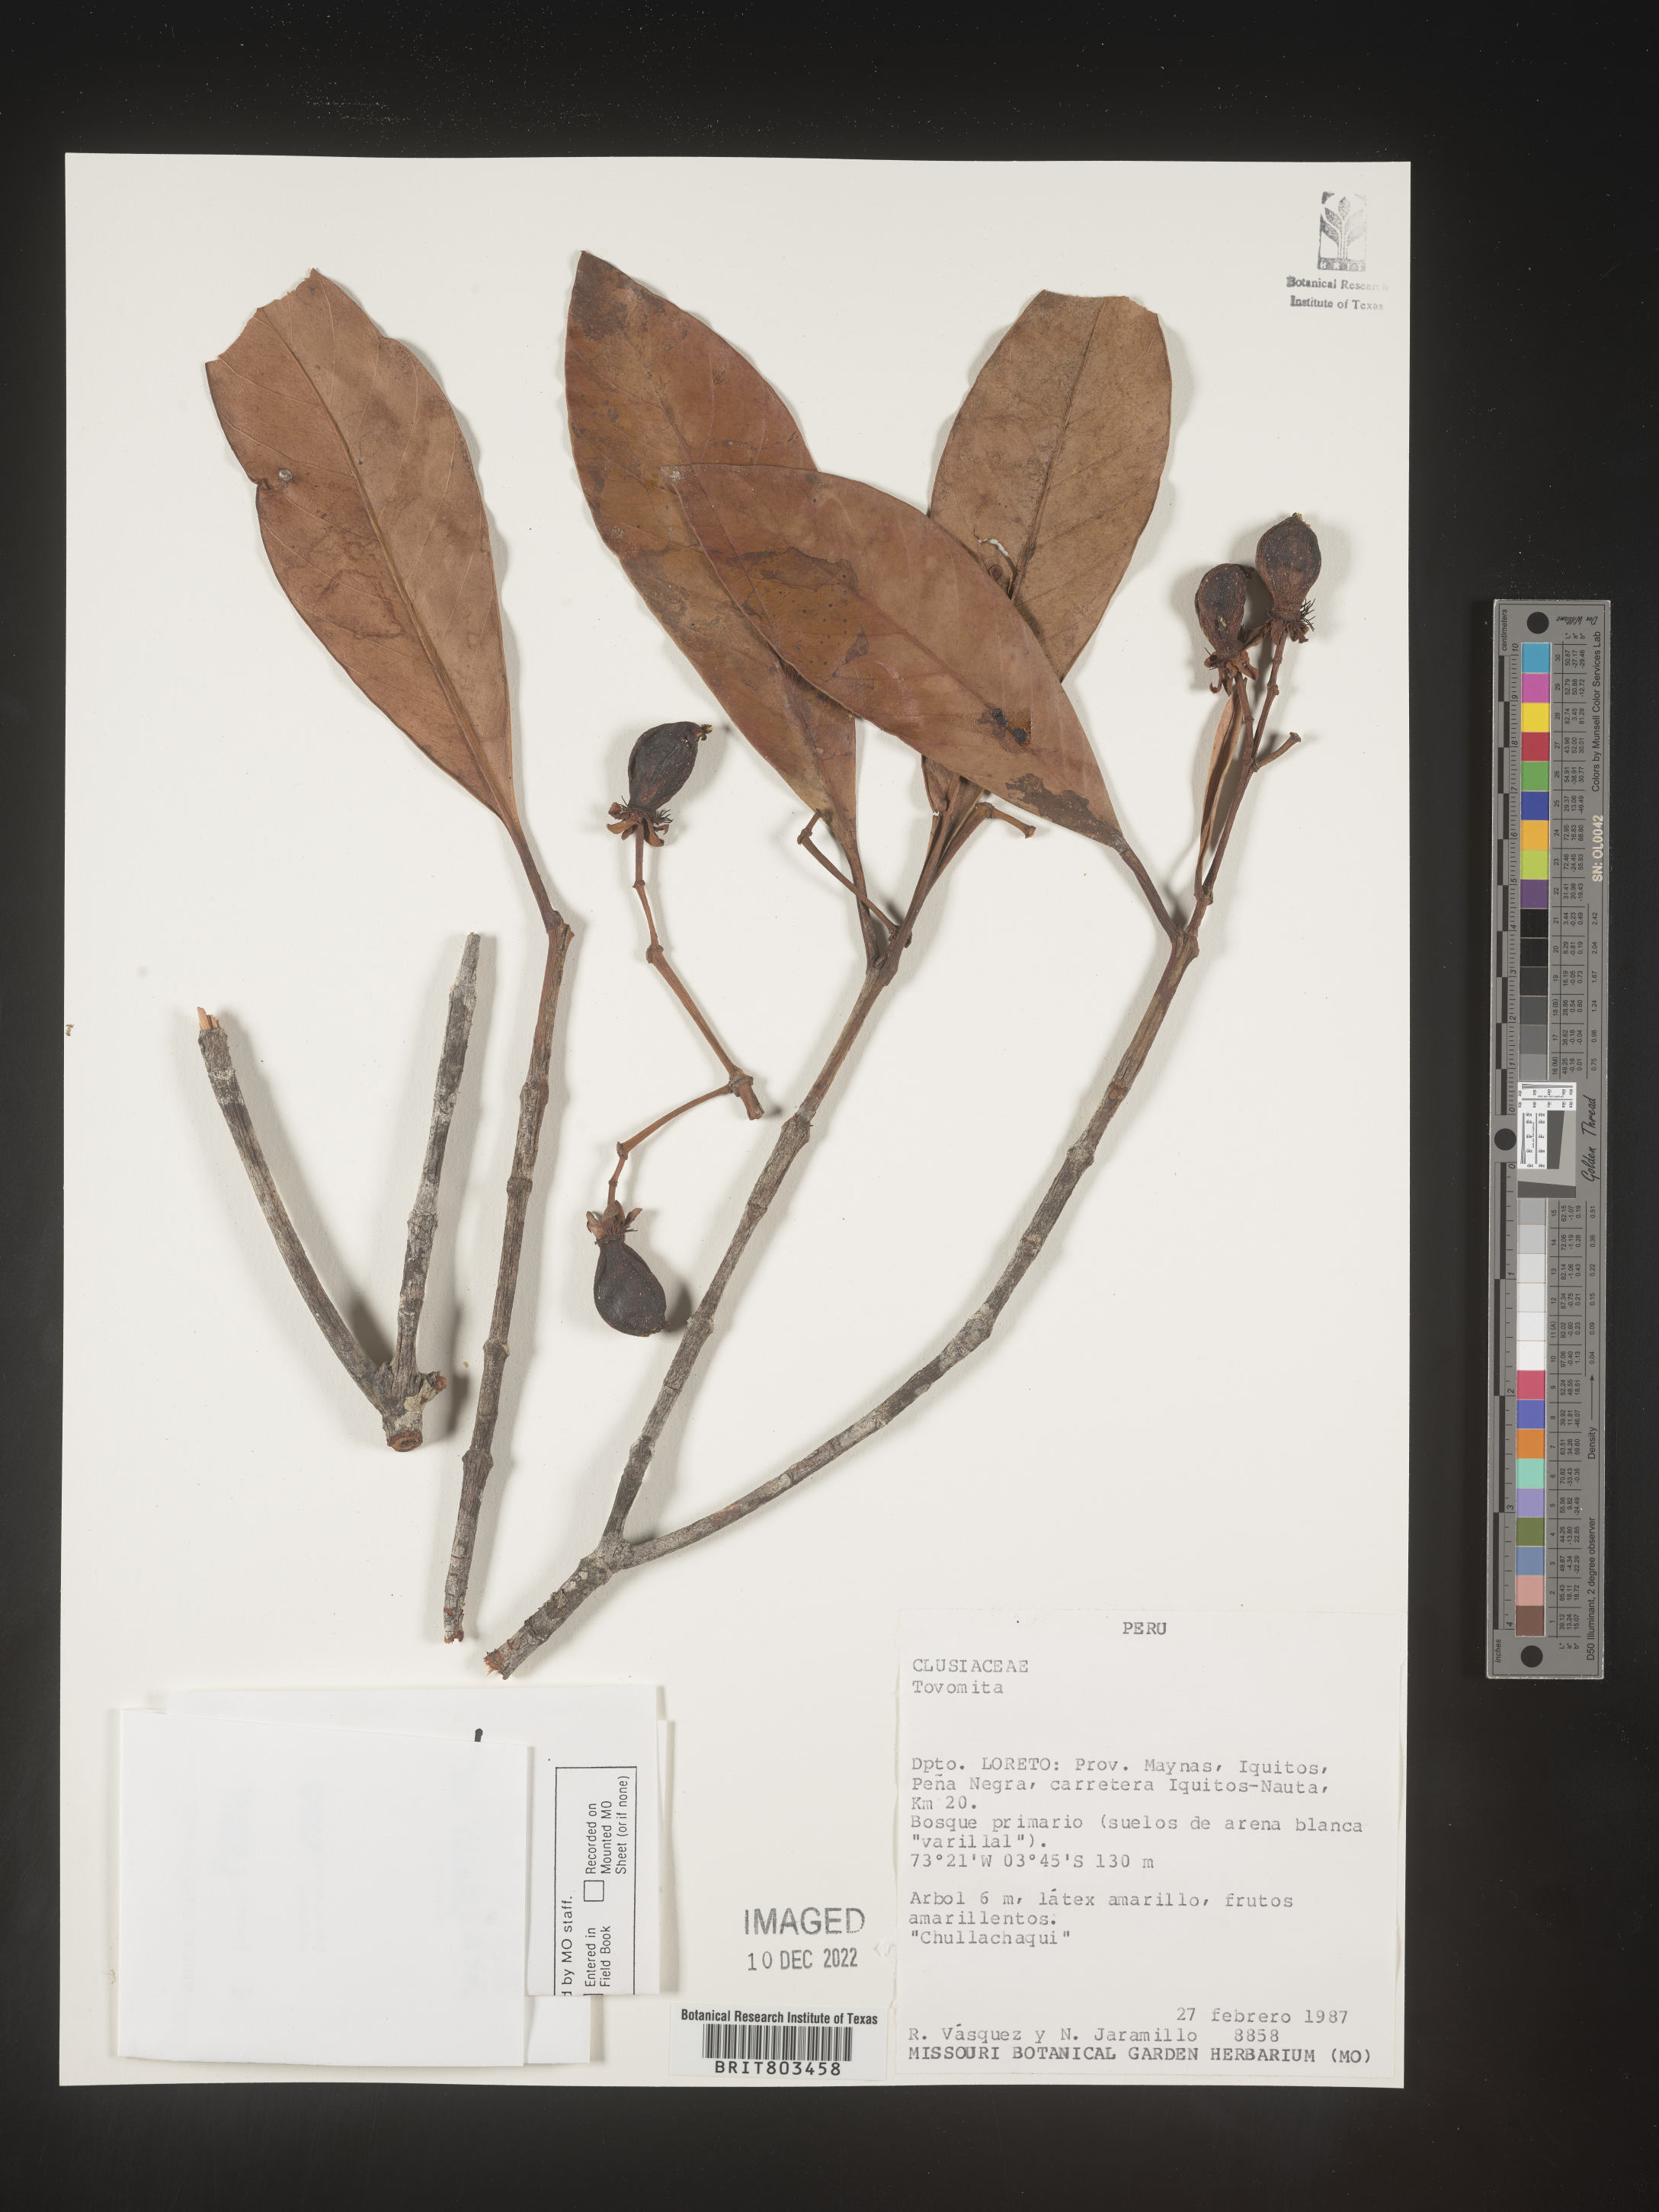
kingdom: Plantae
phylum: Tracheophyta
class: Magnoliopsida
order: Malpighiales
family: Clusiaceae
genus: Tovomita
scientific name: Tovomita
